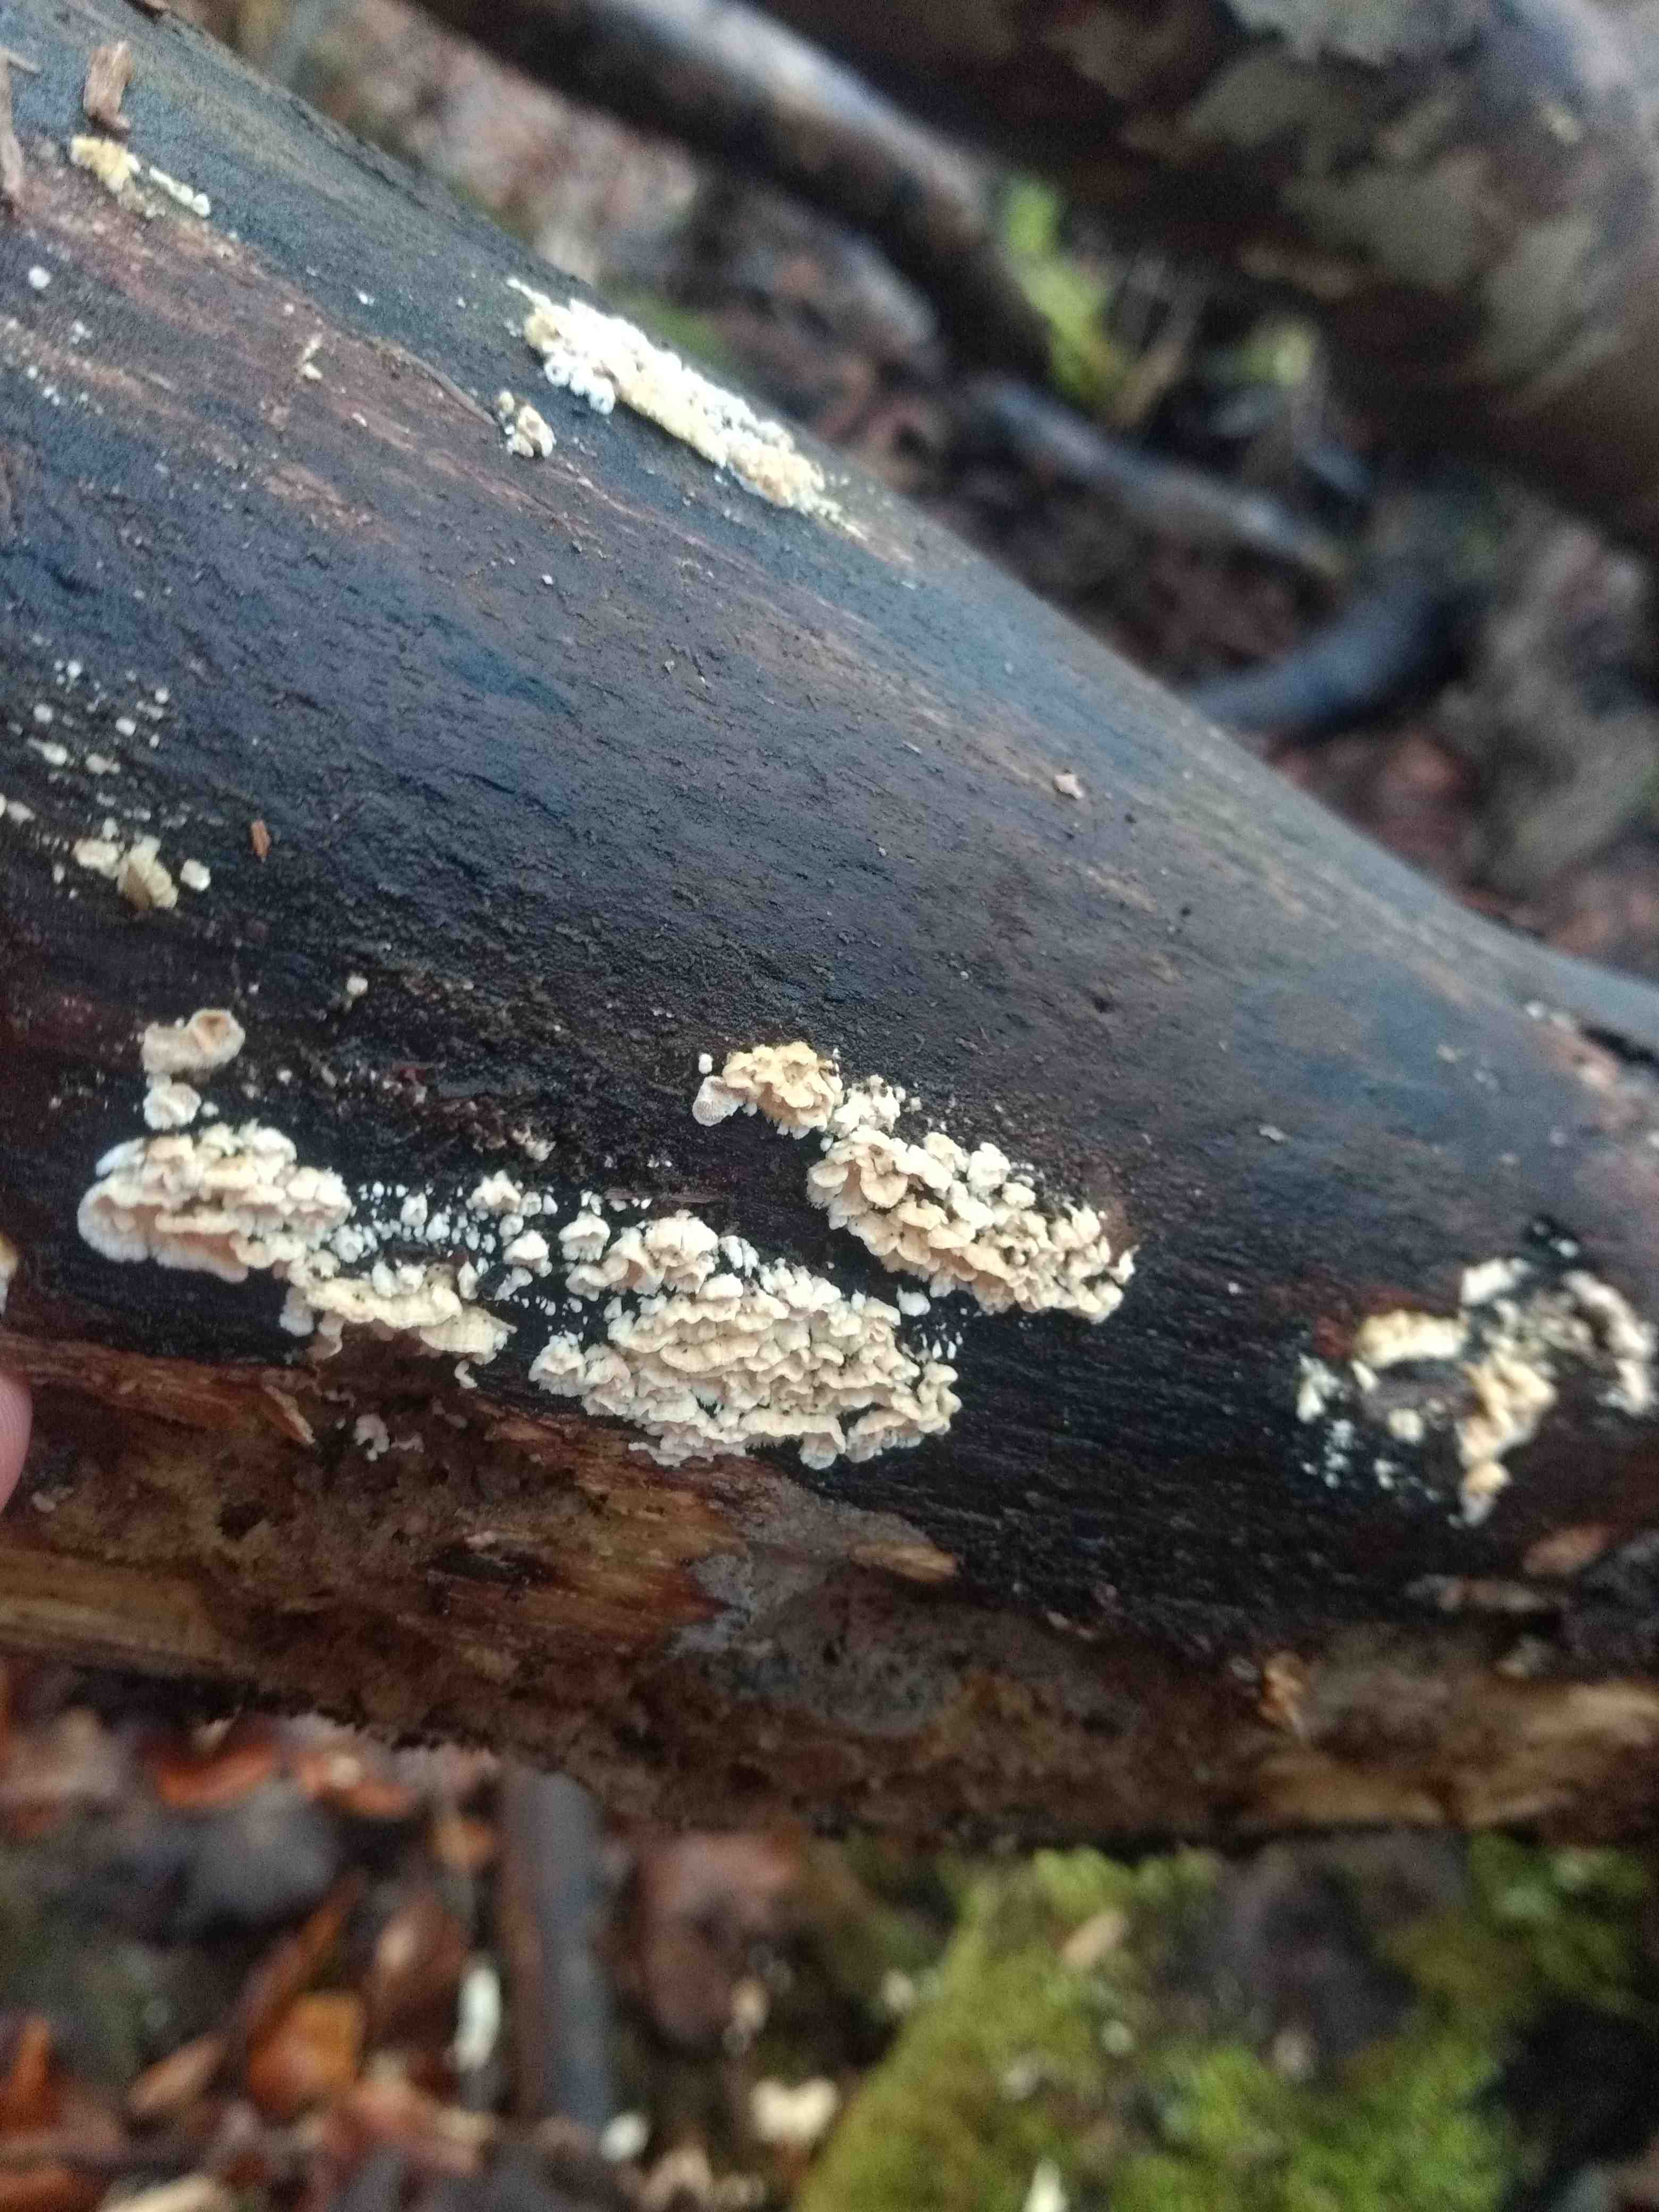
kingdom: Fungi
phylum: Basidiomycota
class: Agaricomycetes
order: Polyporales
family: Steccherinaceae
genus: Steccherinum
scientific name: Steccherinum
